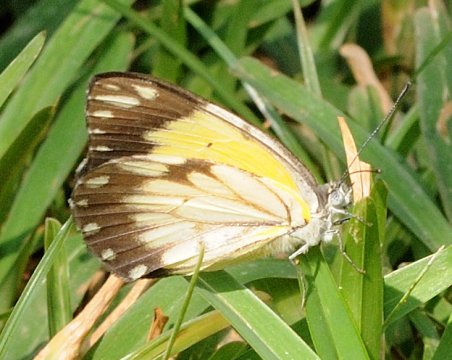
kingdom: Animalia
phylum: Arthropoda
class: Insecta
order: Lepidoptera
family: Pieridae
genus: Belenois
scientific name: Belenois creona
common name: African Caper
